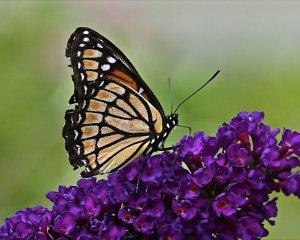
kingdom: Animalia
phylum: Arthropoda
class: Insecta
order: Lepidoptera
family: Nymphalidae
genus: Limenitis
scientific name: Limenitis archippus
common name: Viceroy
